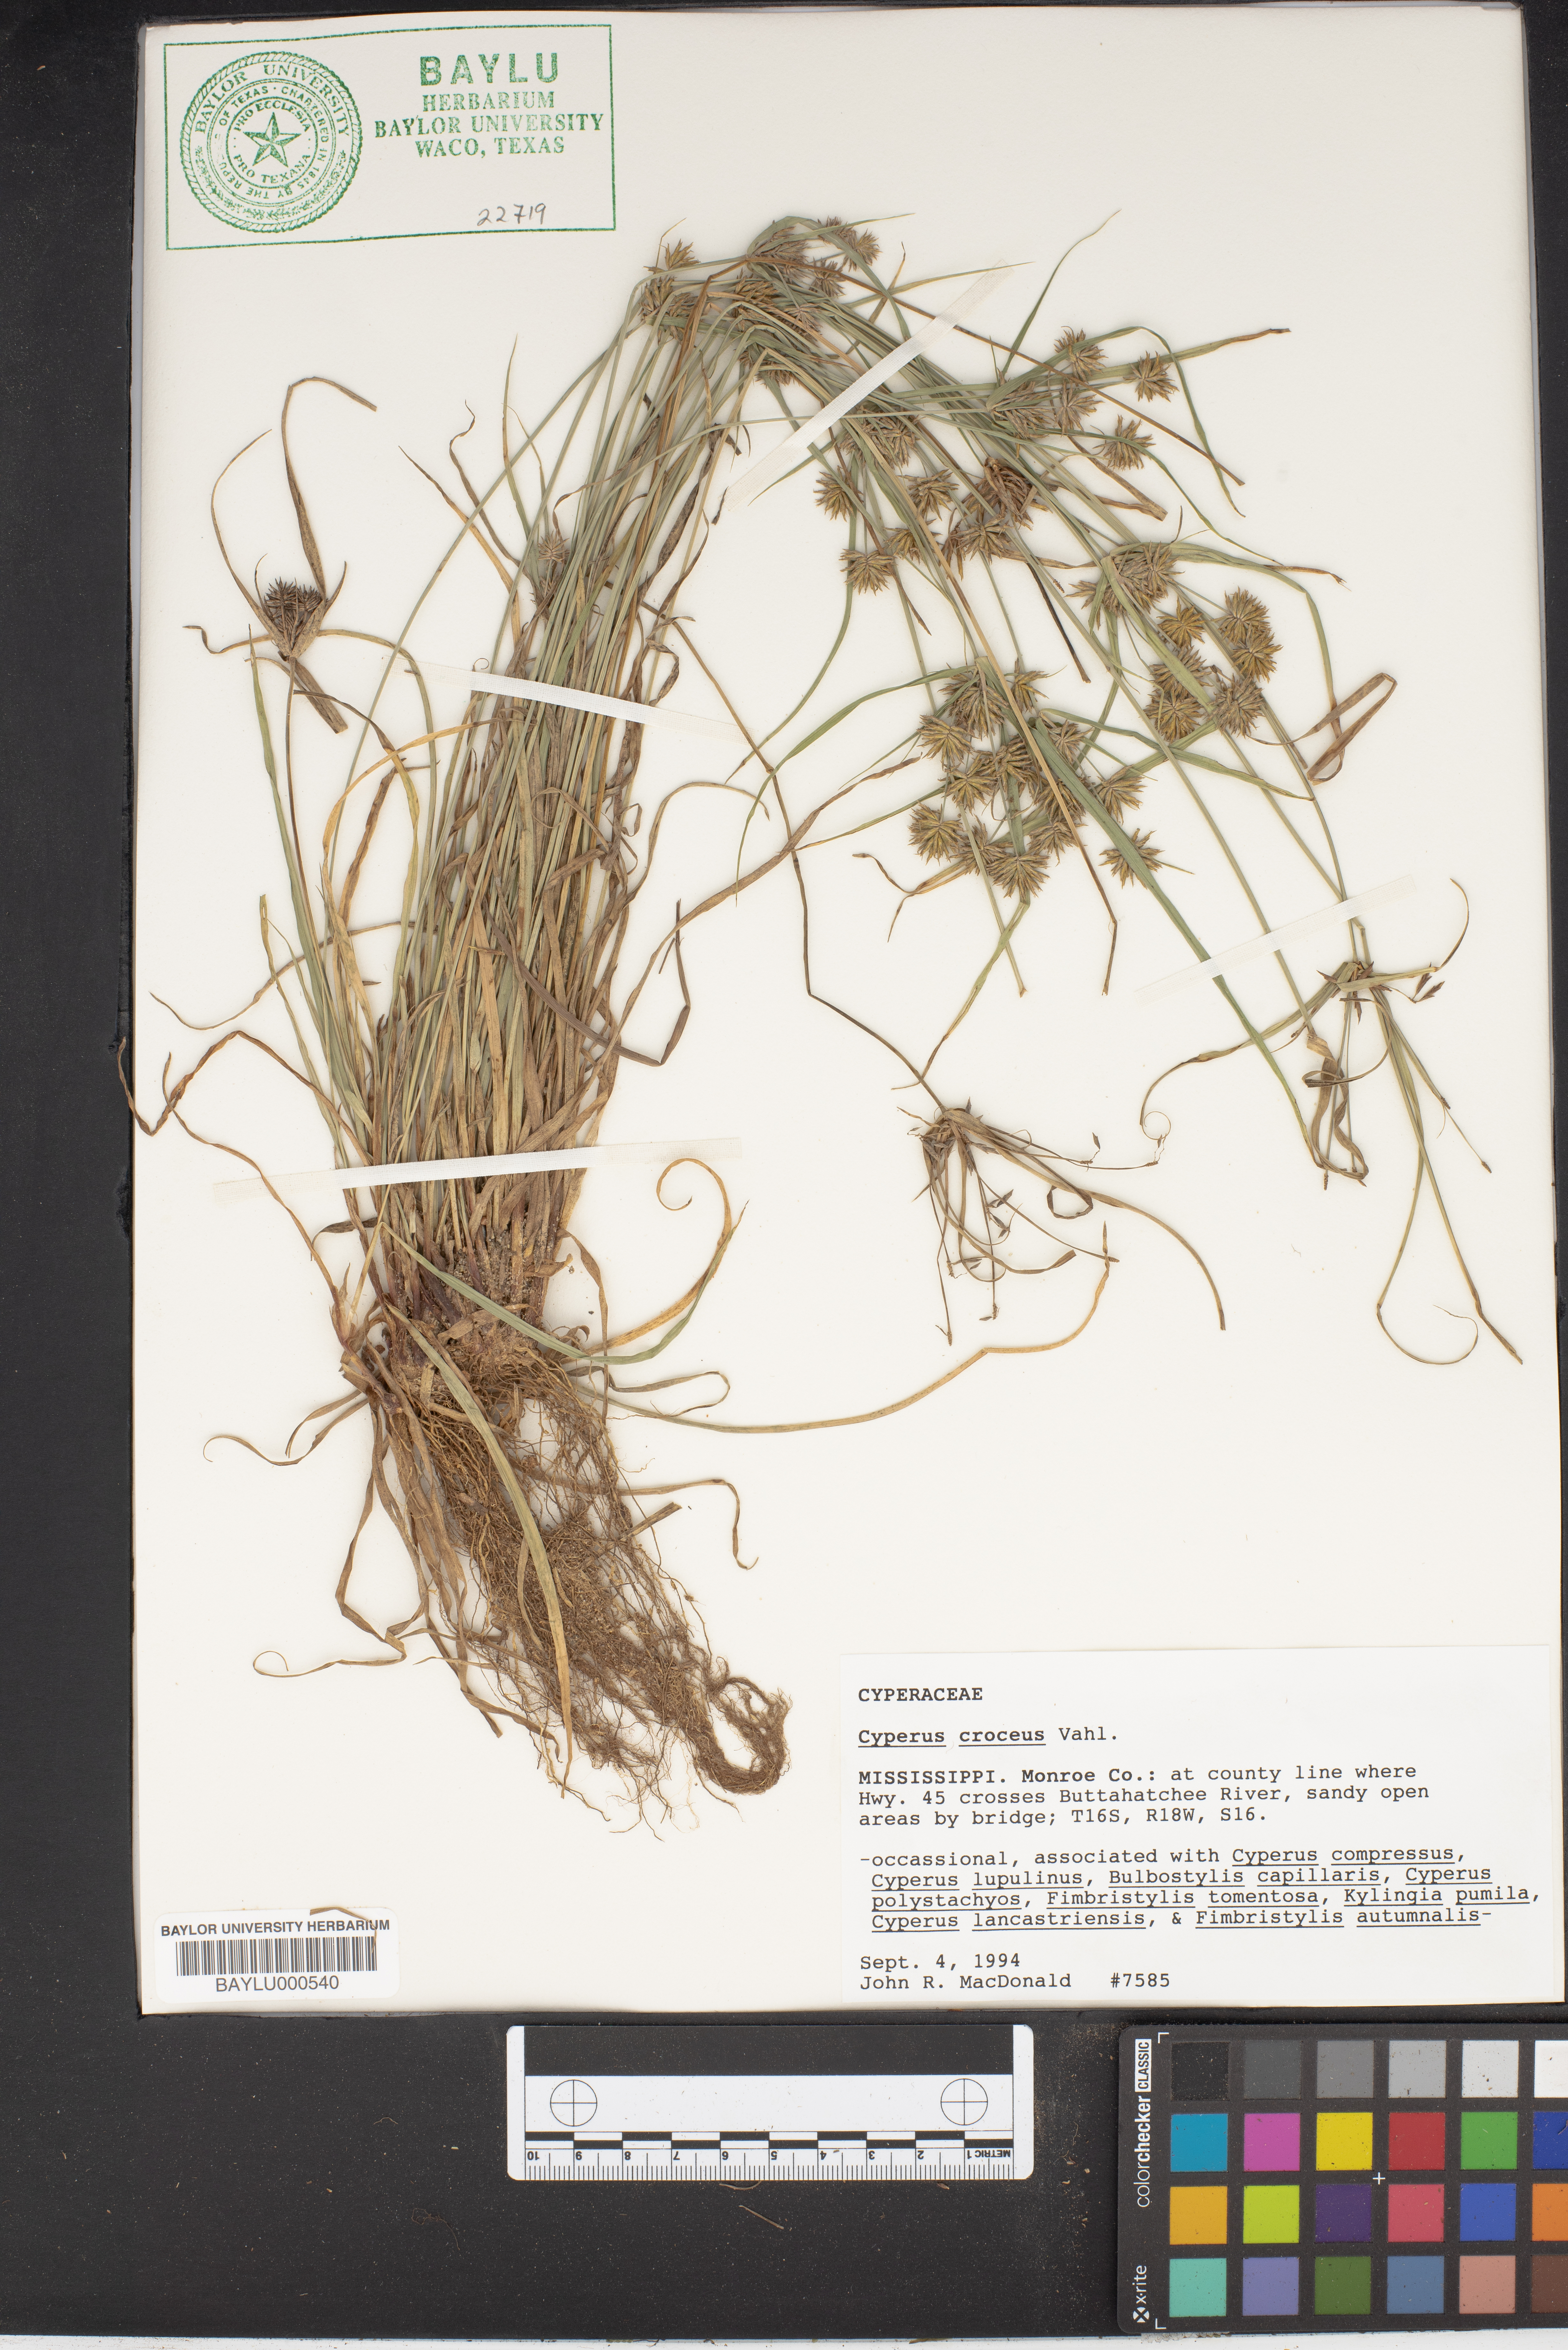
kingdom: Plantae
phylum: Tracheophyta
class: Liliopsida
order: Poales
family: Cyperaceae
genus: Cyperus
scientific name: Cyperus croceus
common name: Baldwin's flatsedge
